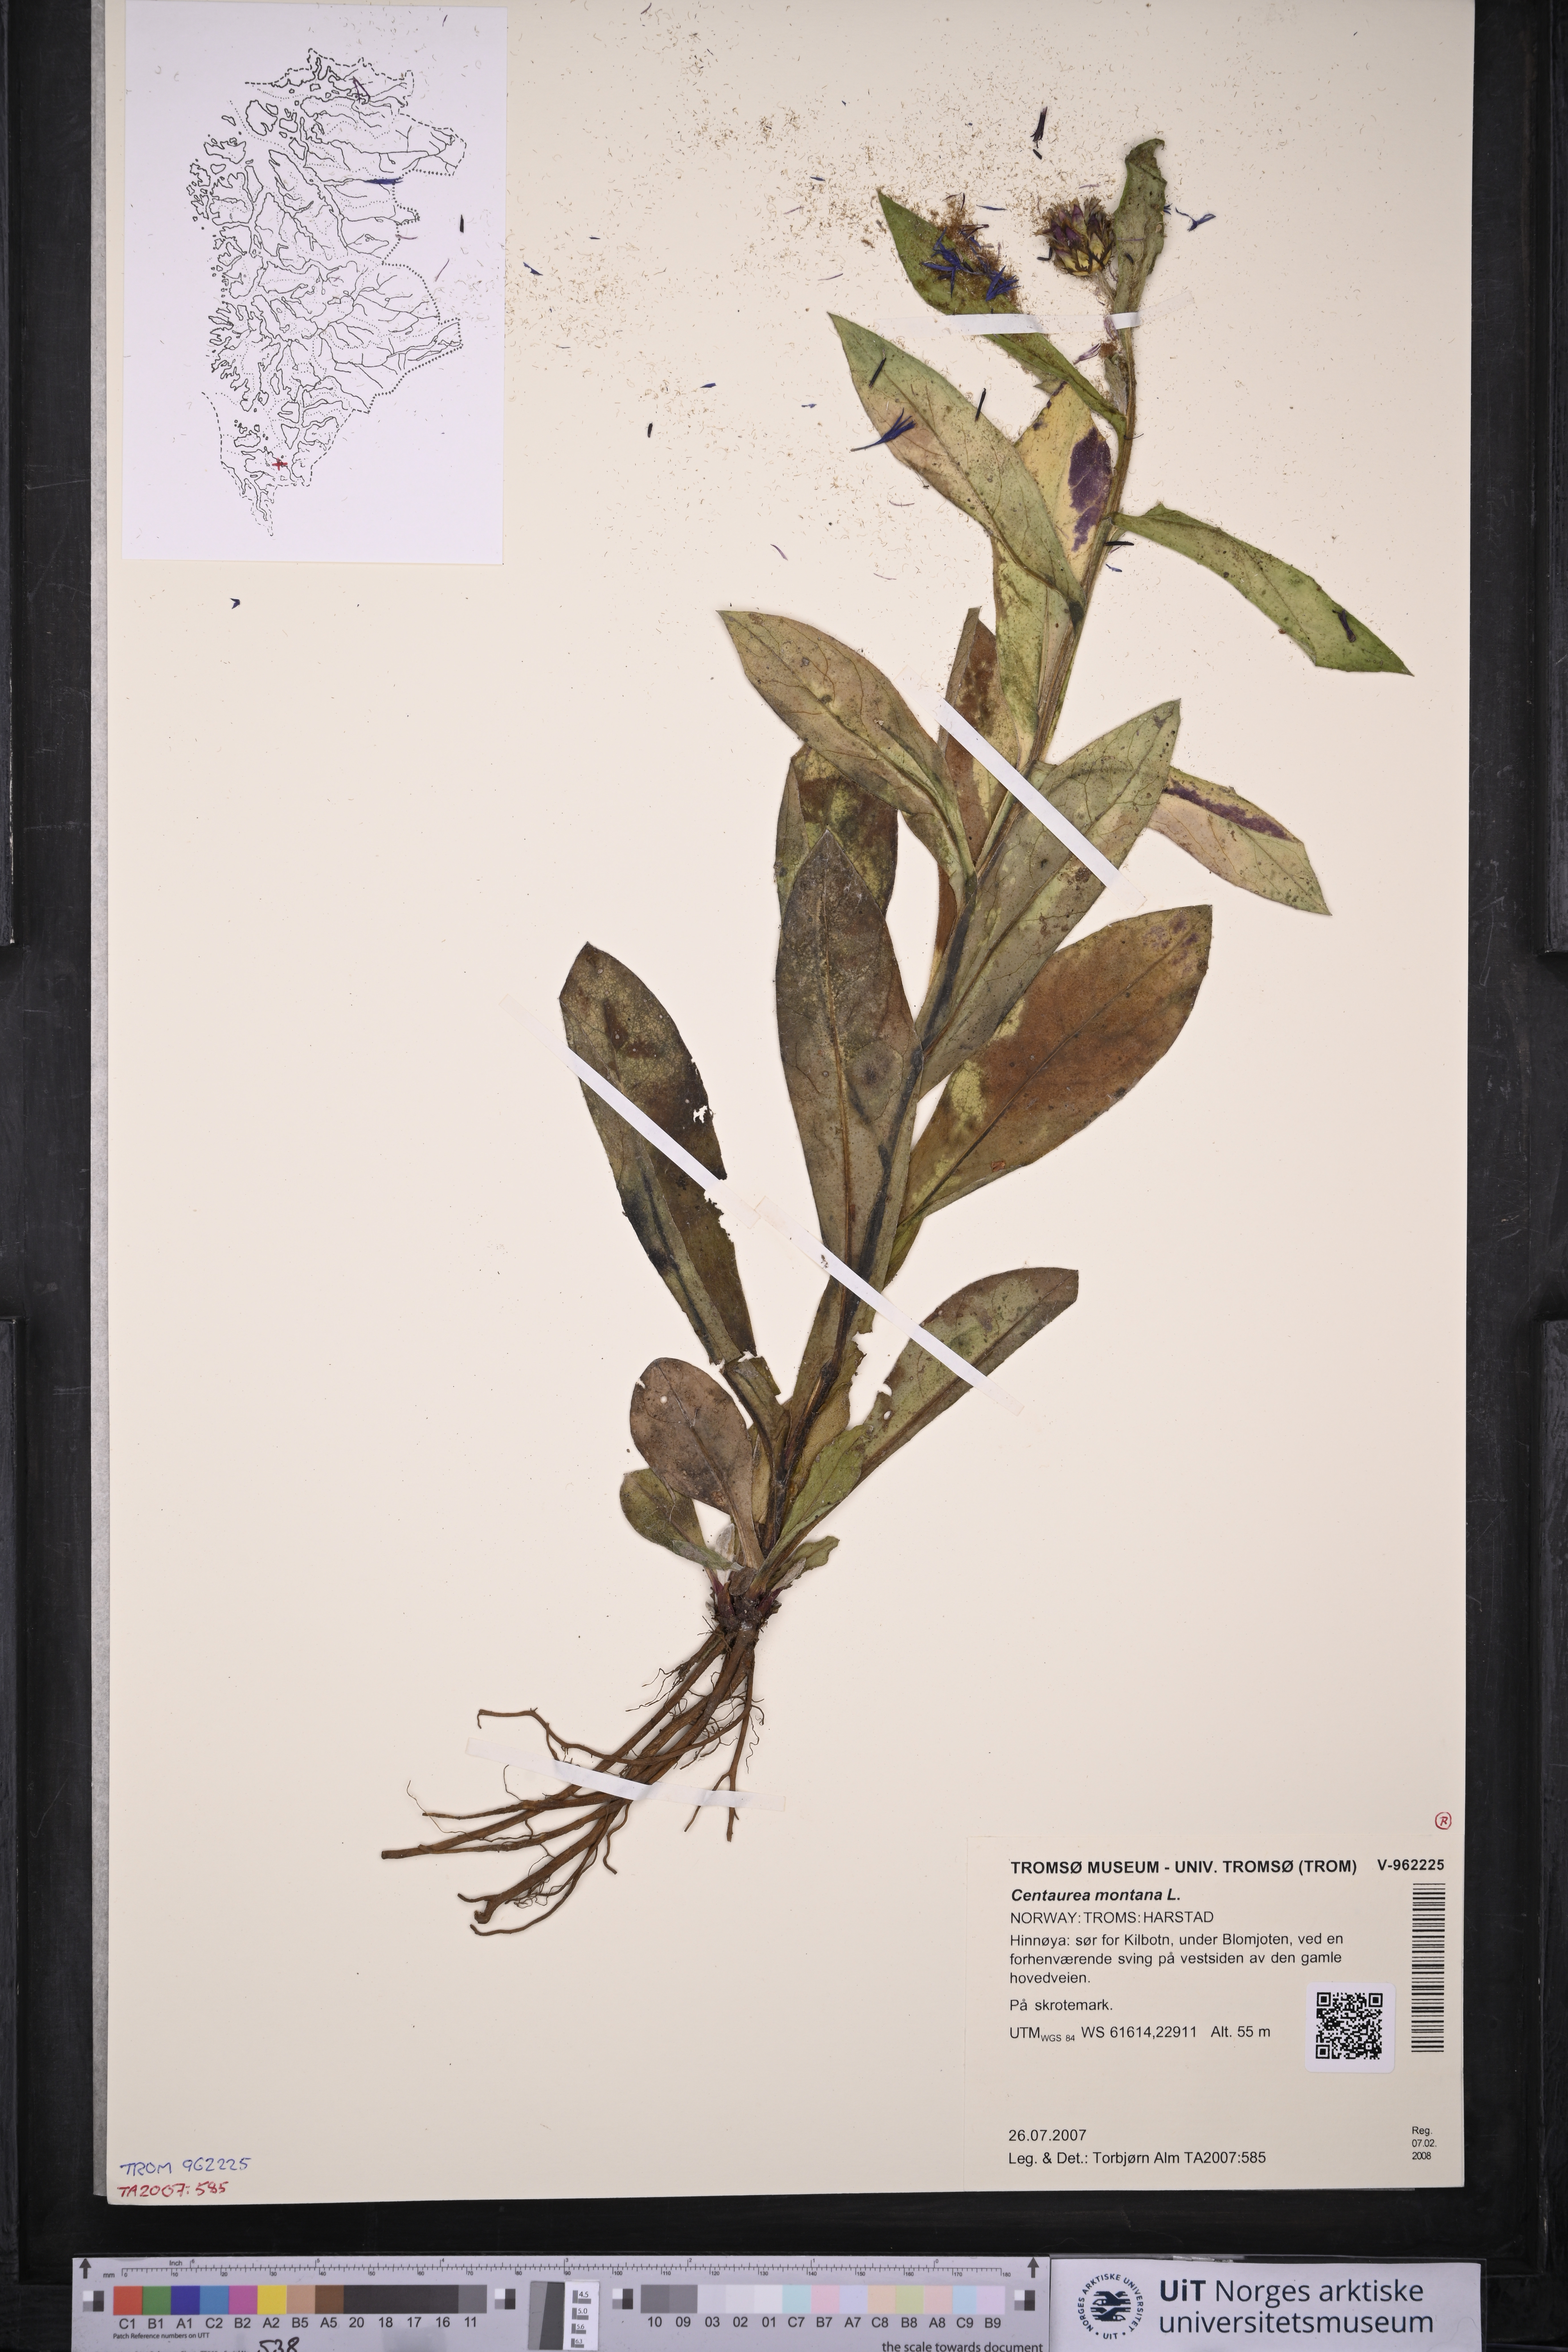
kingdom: Plantae
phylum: Tracheophyta
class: Magnoliopsida
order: Asterales
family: Asteraceae
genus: Centaurea
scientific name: Centaurea montana
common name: Perennial cornflower
